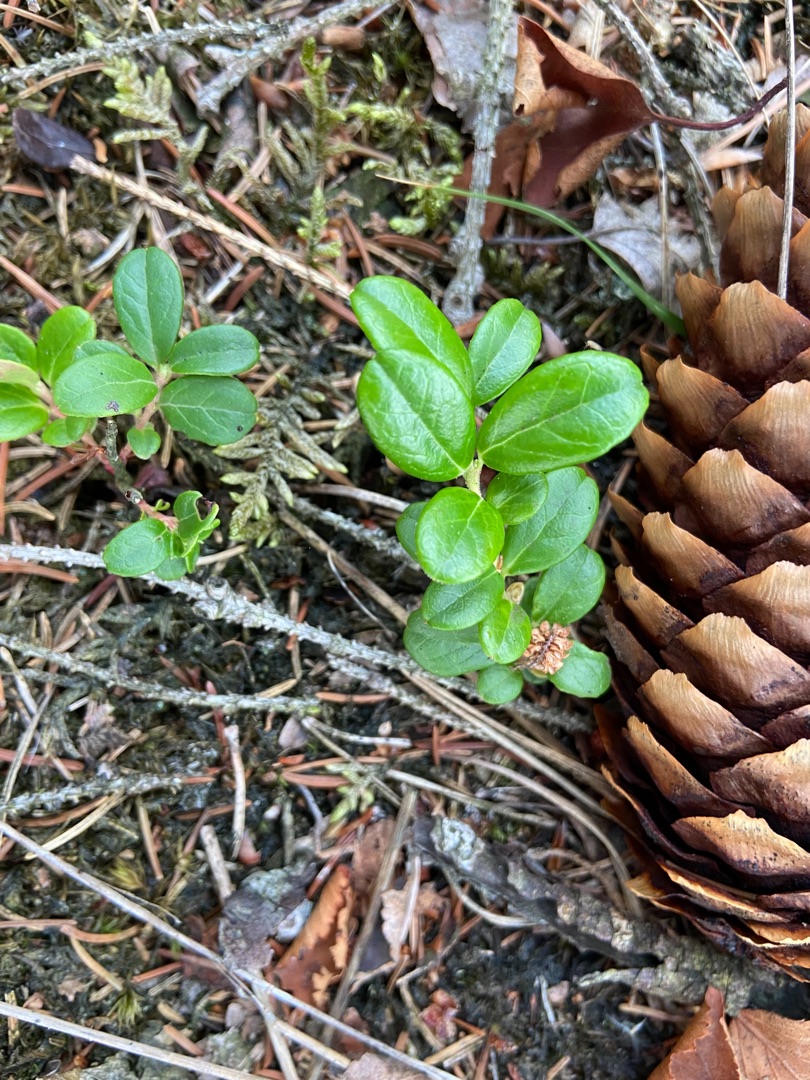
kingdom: Plantae
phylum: Tracheophyta
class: Magnoliopsida
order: Ericales
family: Ericaceae
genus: Vaccinium
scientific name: Vaccinium vitis-idaea
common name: Tyttebær
